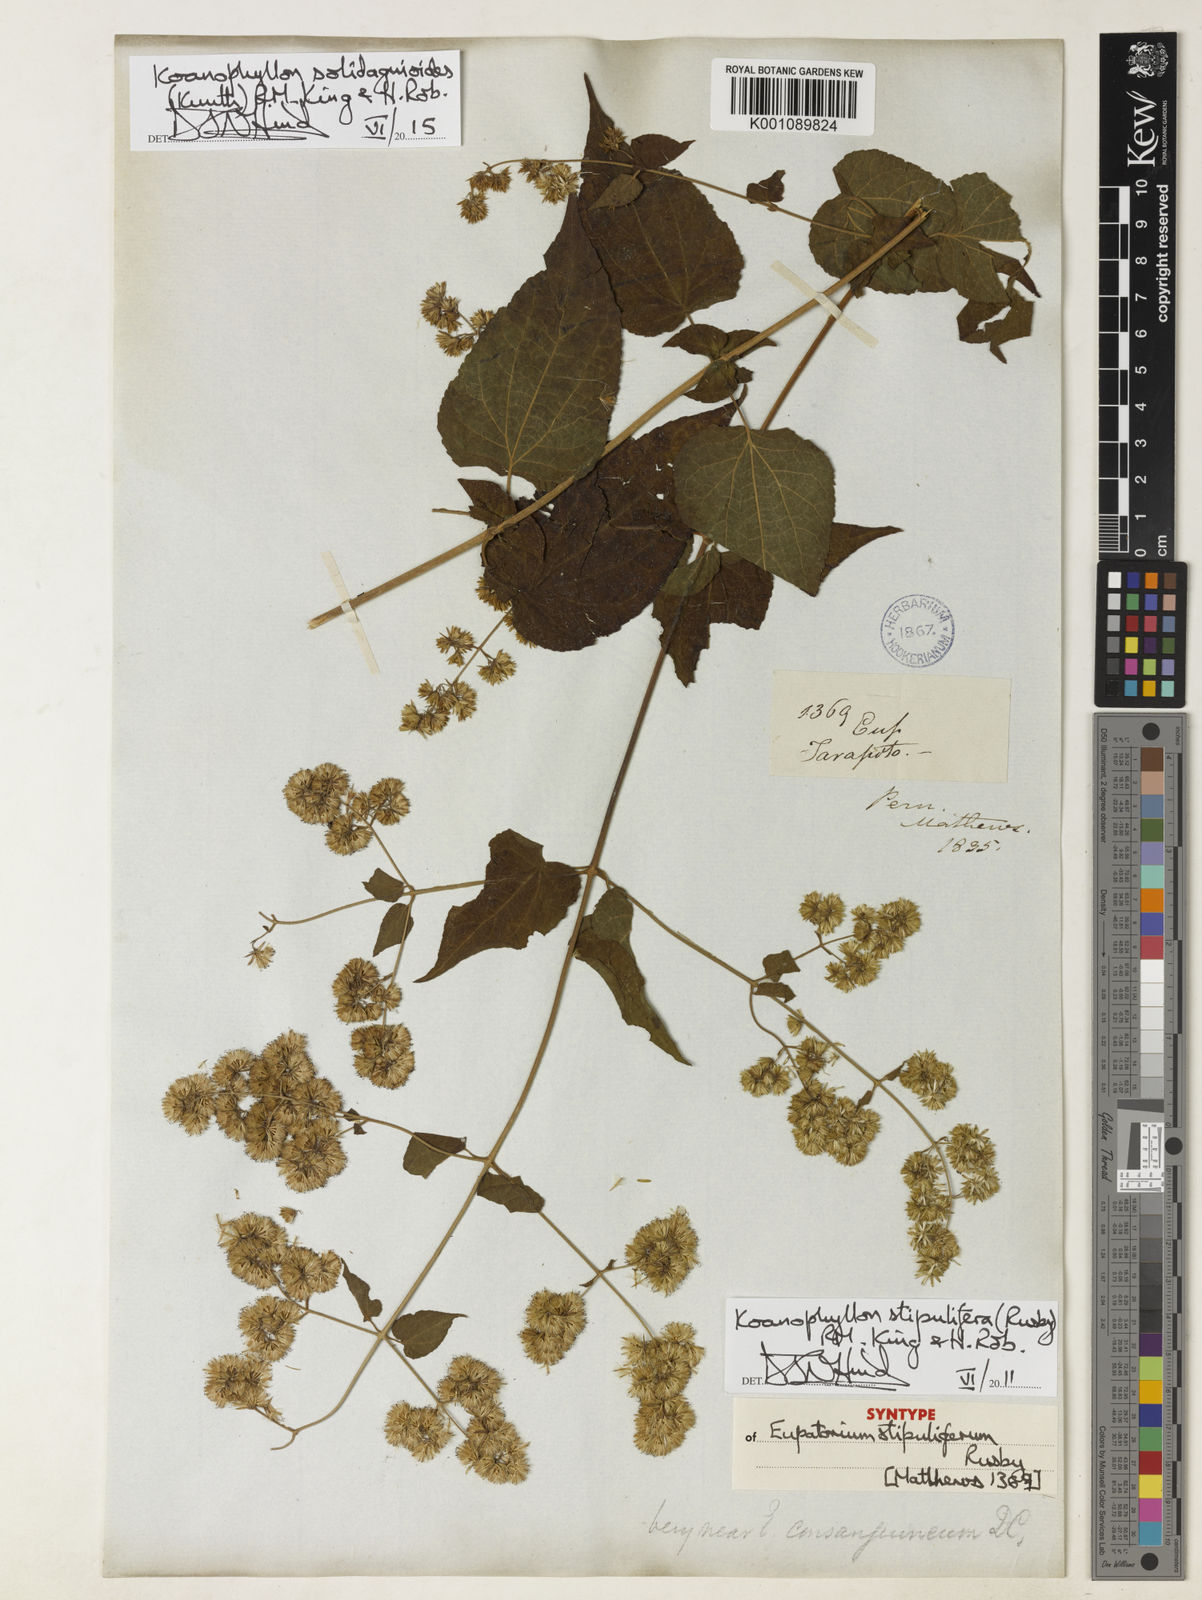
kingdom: Plantae
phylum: Tracheophyta
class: Magnoliopsida
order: Asterales
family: Asteraceae
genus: Koanophyllon
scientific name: Koanophyllon solidaginoides
